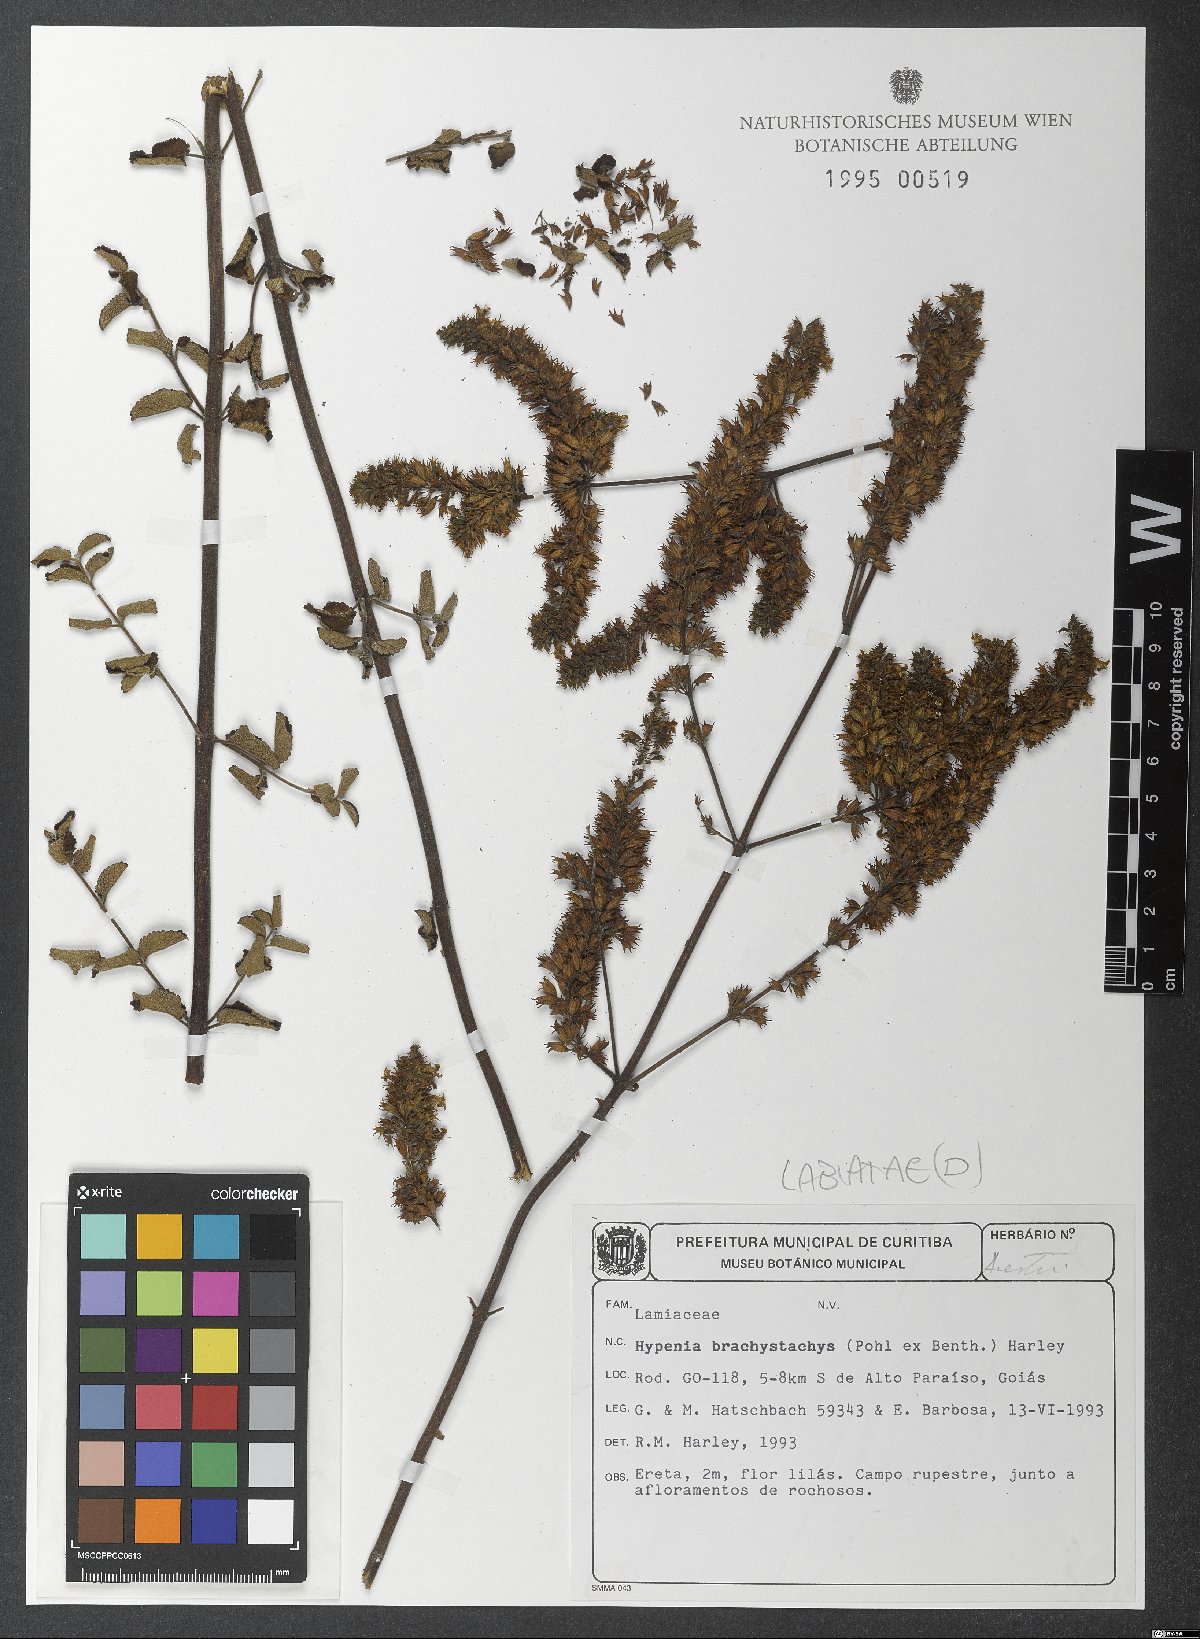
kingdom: Plantae
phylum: Tracheophyta
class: Magnoliopsida
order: Lamiales
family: Lamiaceae
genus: Hypenia
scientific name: Hypenia brachystachys
